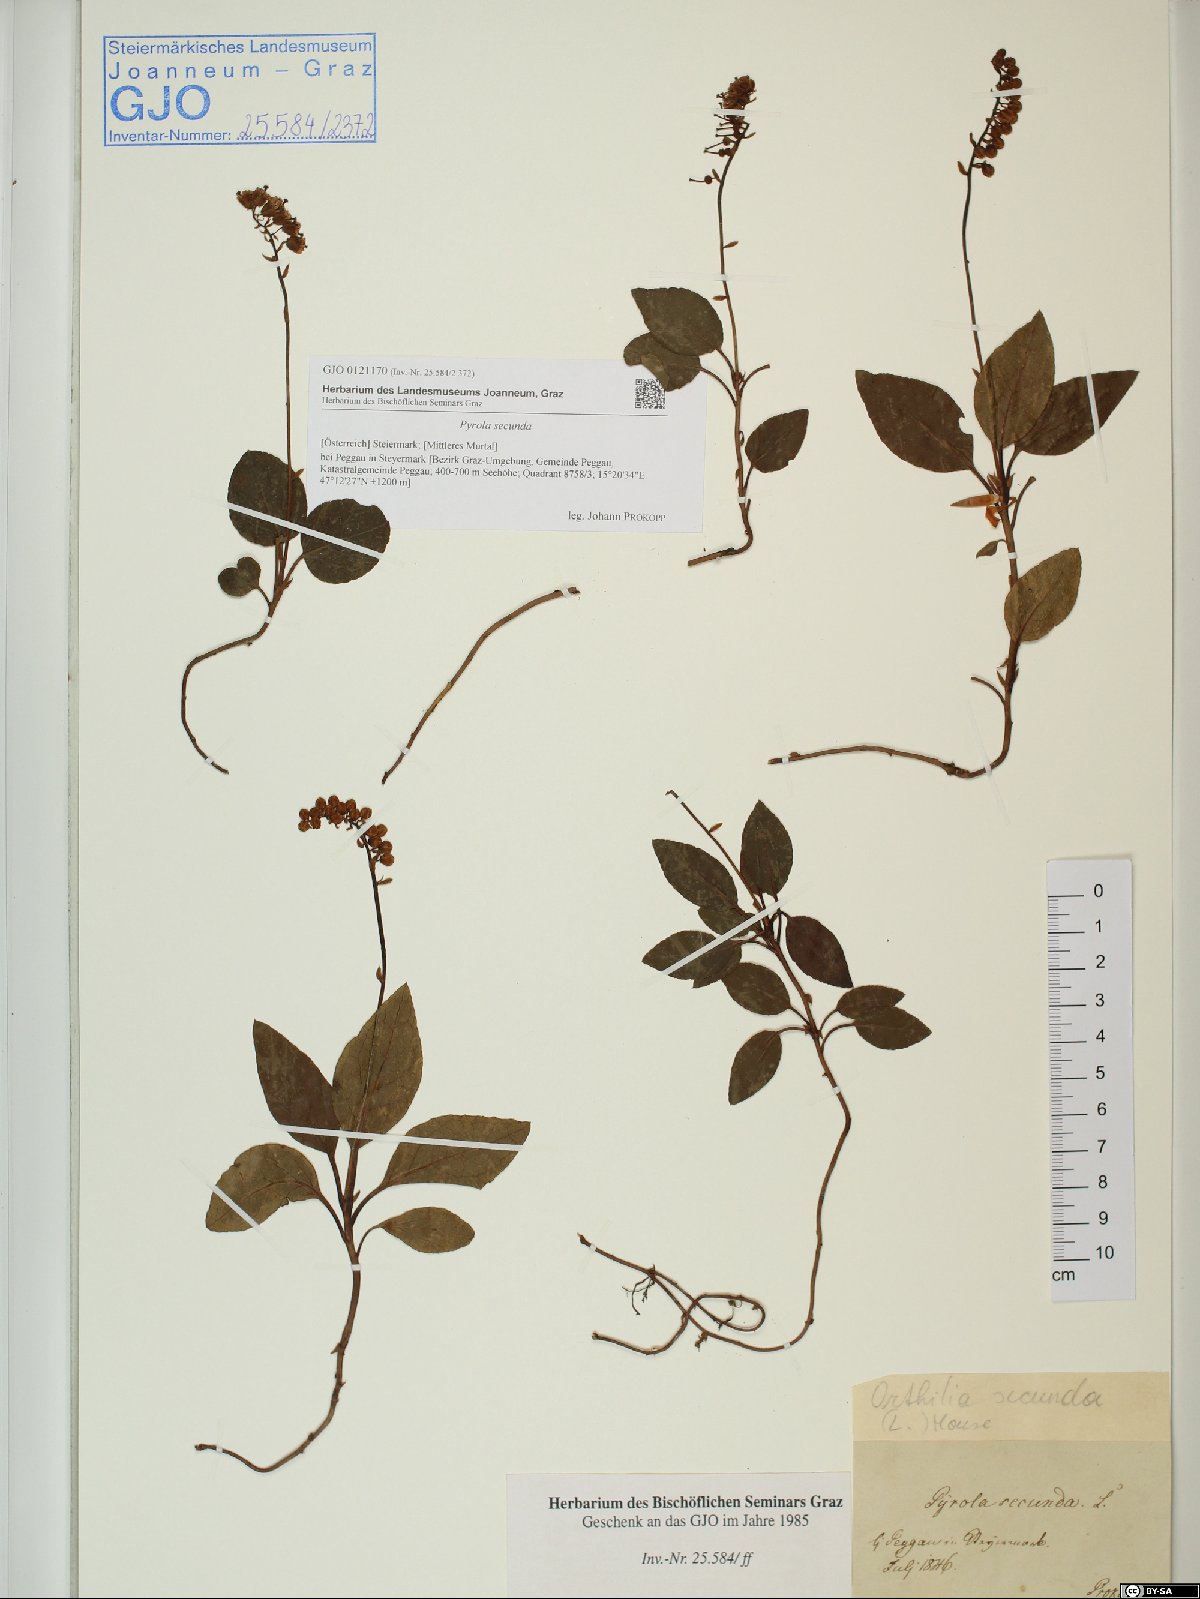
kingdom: Plantae
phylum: Tracheophyta
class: Magnoliopsida
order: Ericales
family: Ericaceae
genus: Orthilia
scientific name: Orthilia secunda
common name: One-sided orthilia
